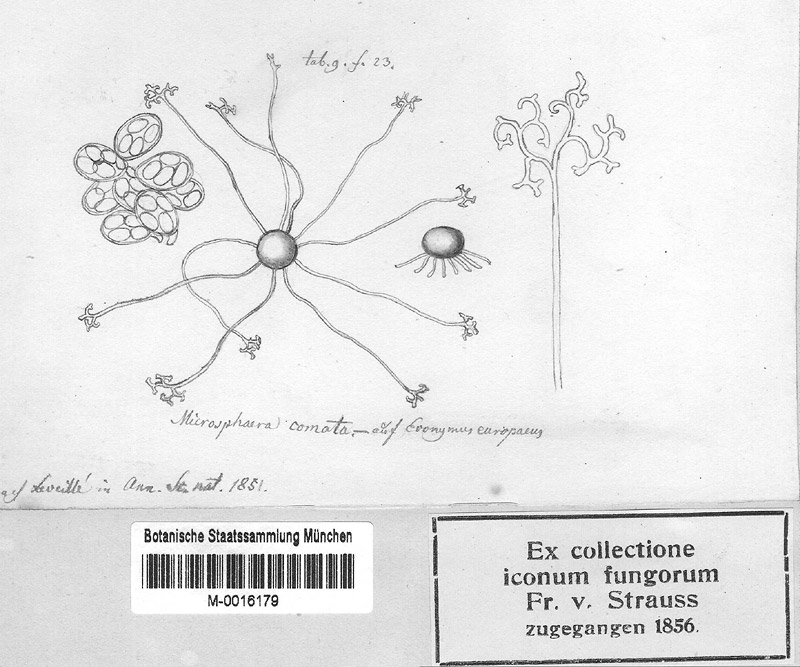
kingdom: Fungi
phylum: Ascomycota
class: Leotiomycetes
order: Helotiales
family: Erysiphaceae
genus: Erysiphe
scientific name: Erysiphe euonymi
